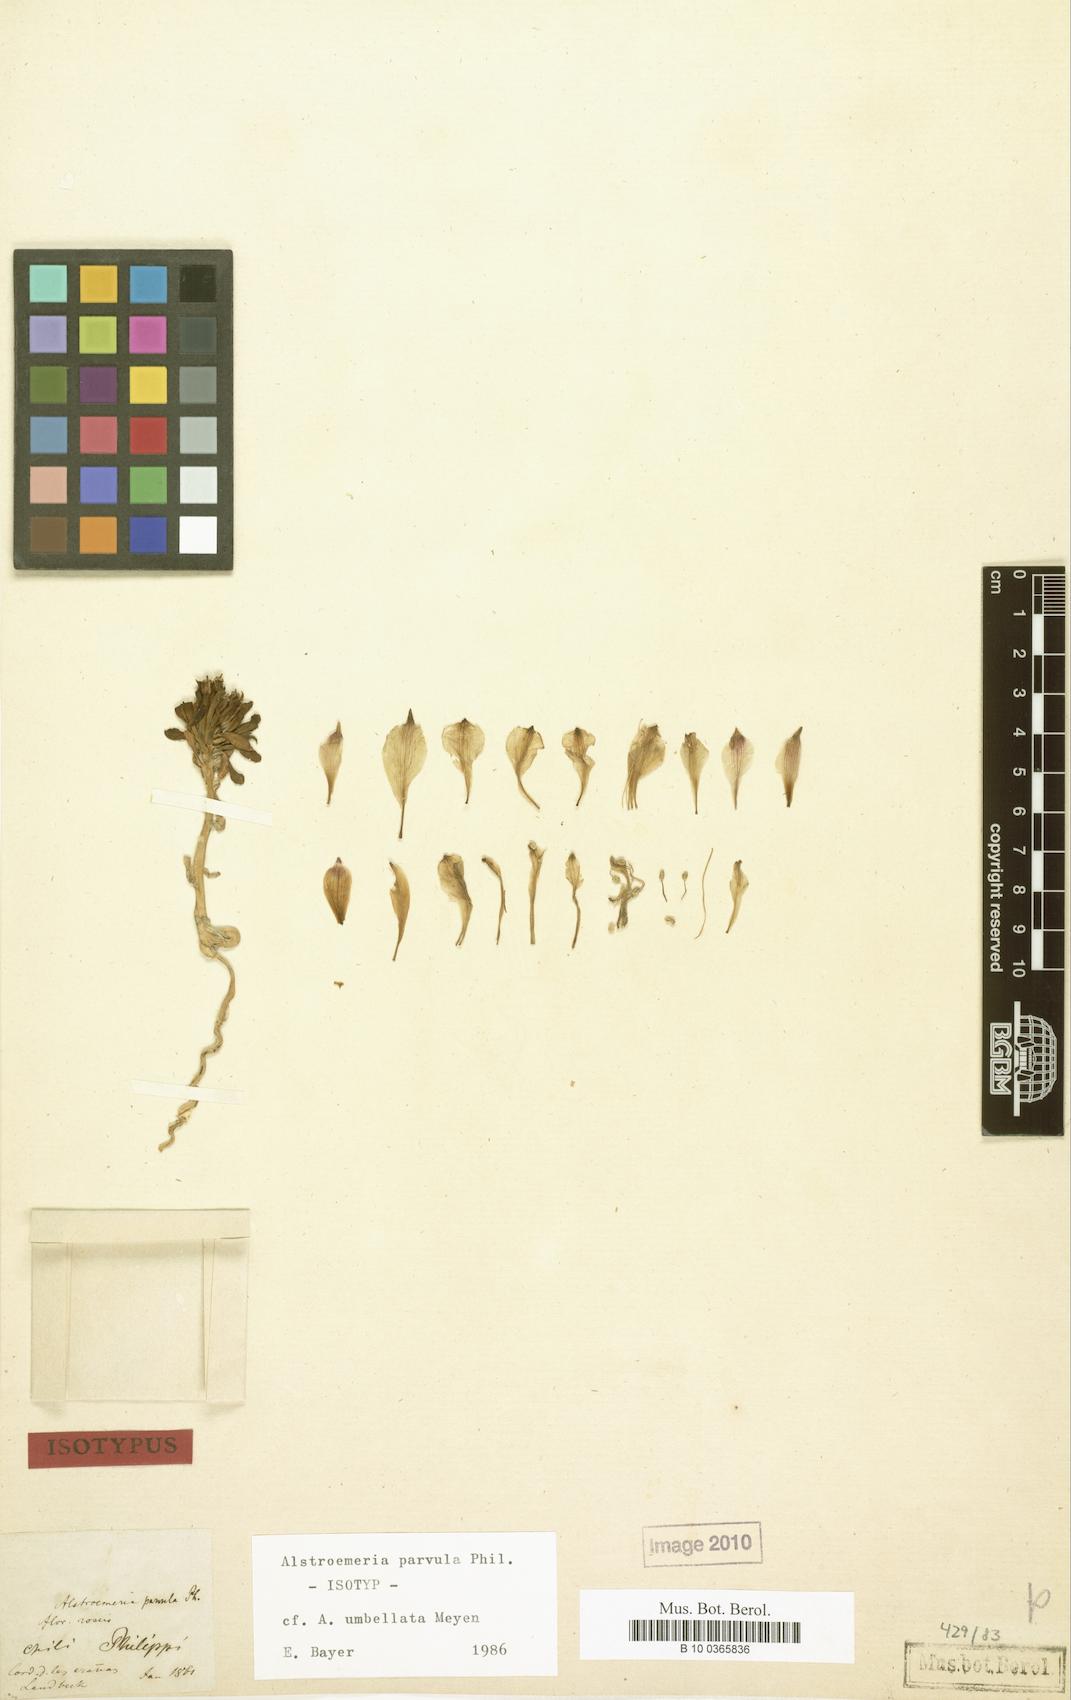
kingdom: Plantae
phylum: Tracheophyta
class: Liliopsida
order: Liliales
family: Alstroemeriaceae
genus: Alstroemeria
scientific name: Alstroemeria umbellata
